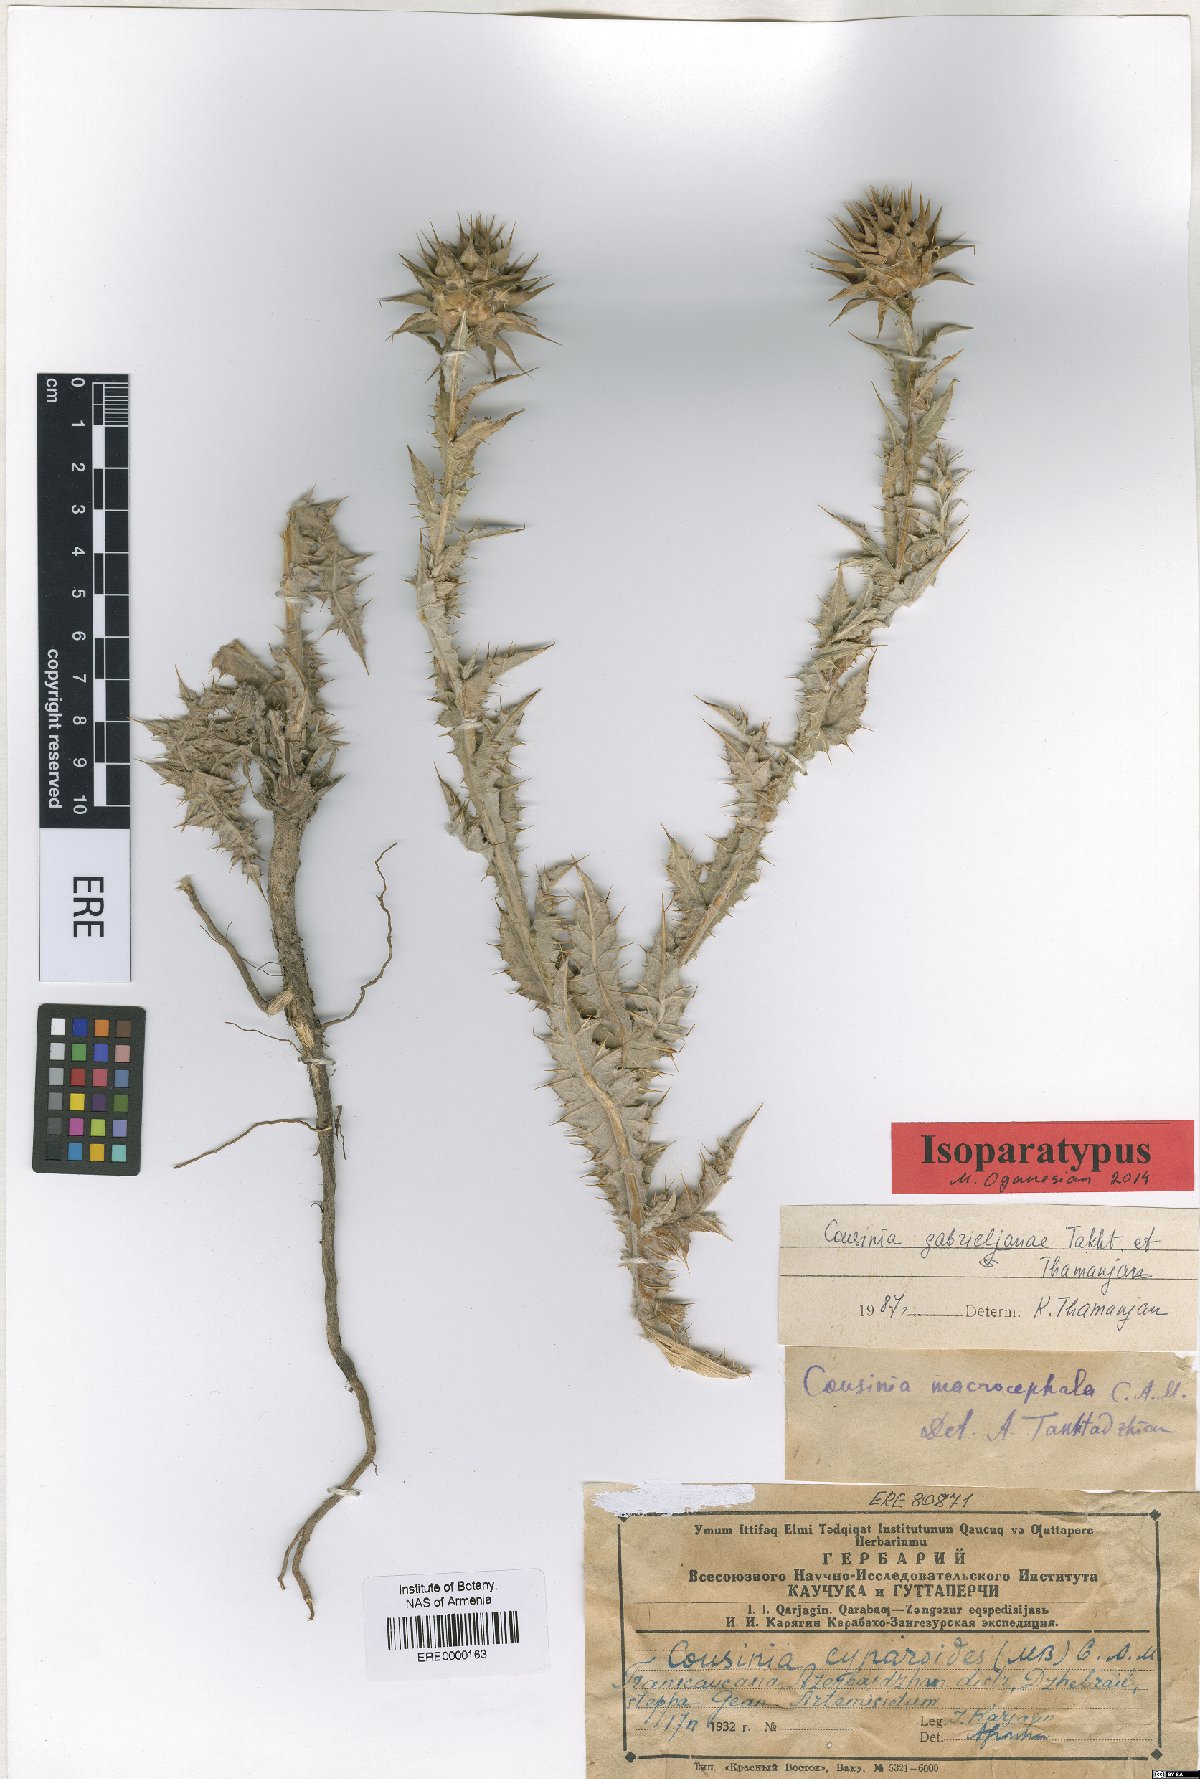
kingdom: Plantae
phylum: Tracheophyta
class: Magnoliopsida
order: Asterales
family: Asteraceae
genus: Cousinia
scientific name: Cousinia macrocephala
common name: Macrocephalous cousinia
